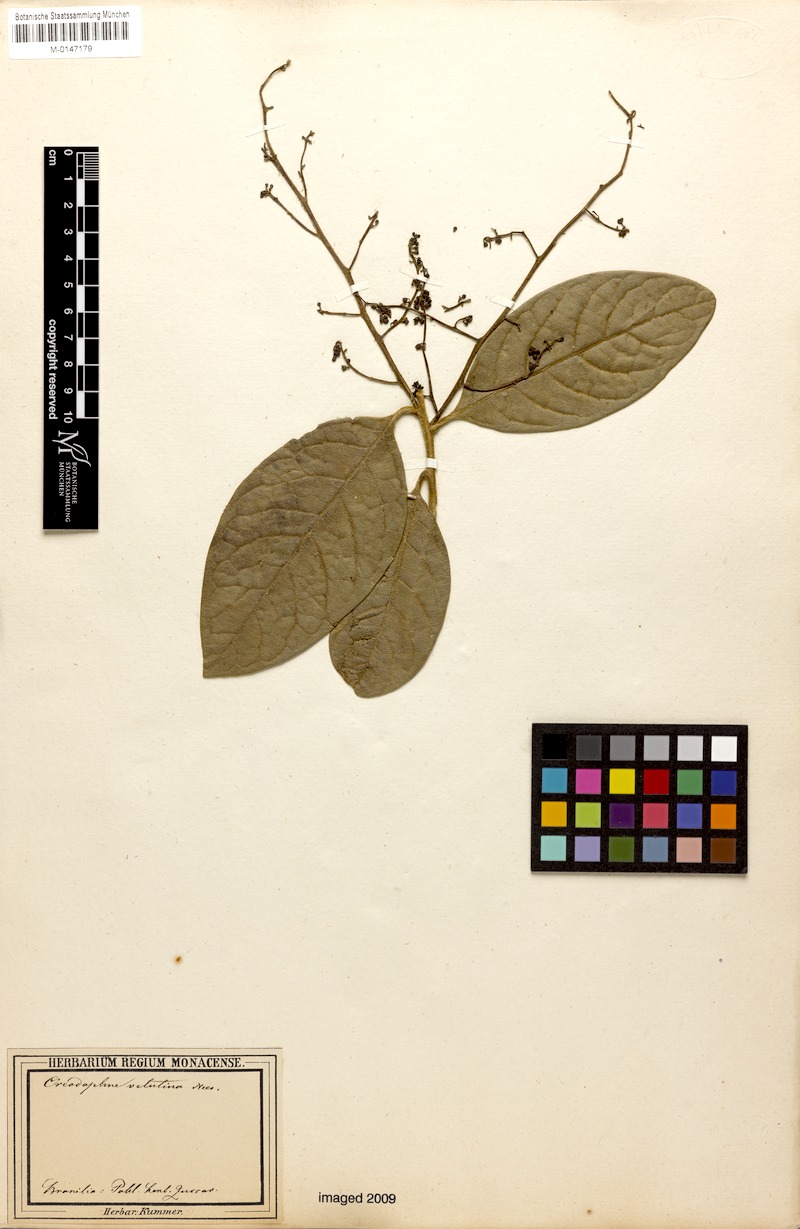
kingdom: Plantae
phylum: Tracheophyta
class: Magnoliopsida
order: Laurales
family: Lauraceae
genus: Andea
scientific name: Andea velutina
